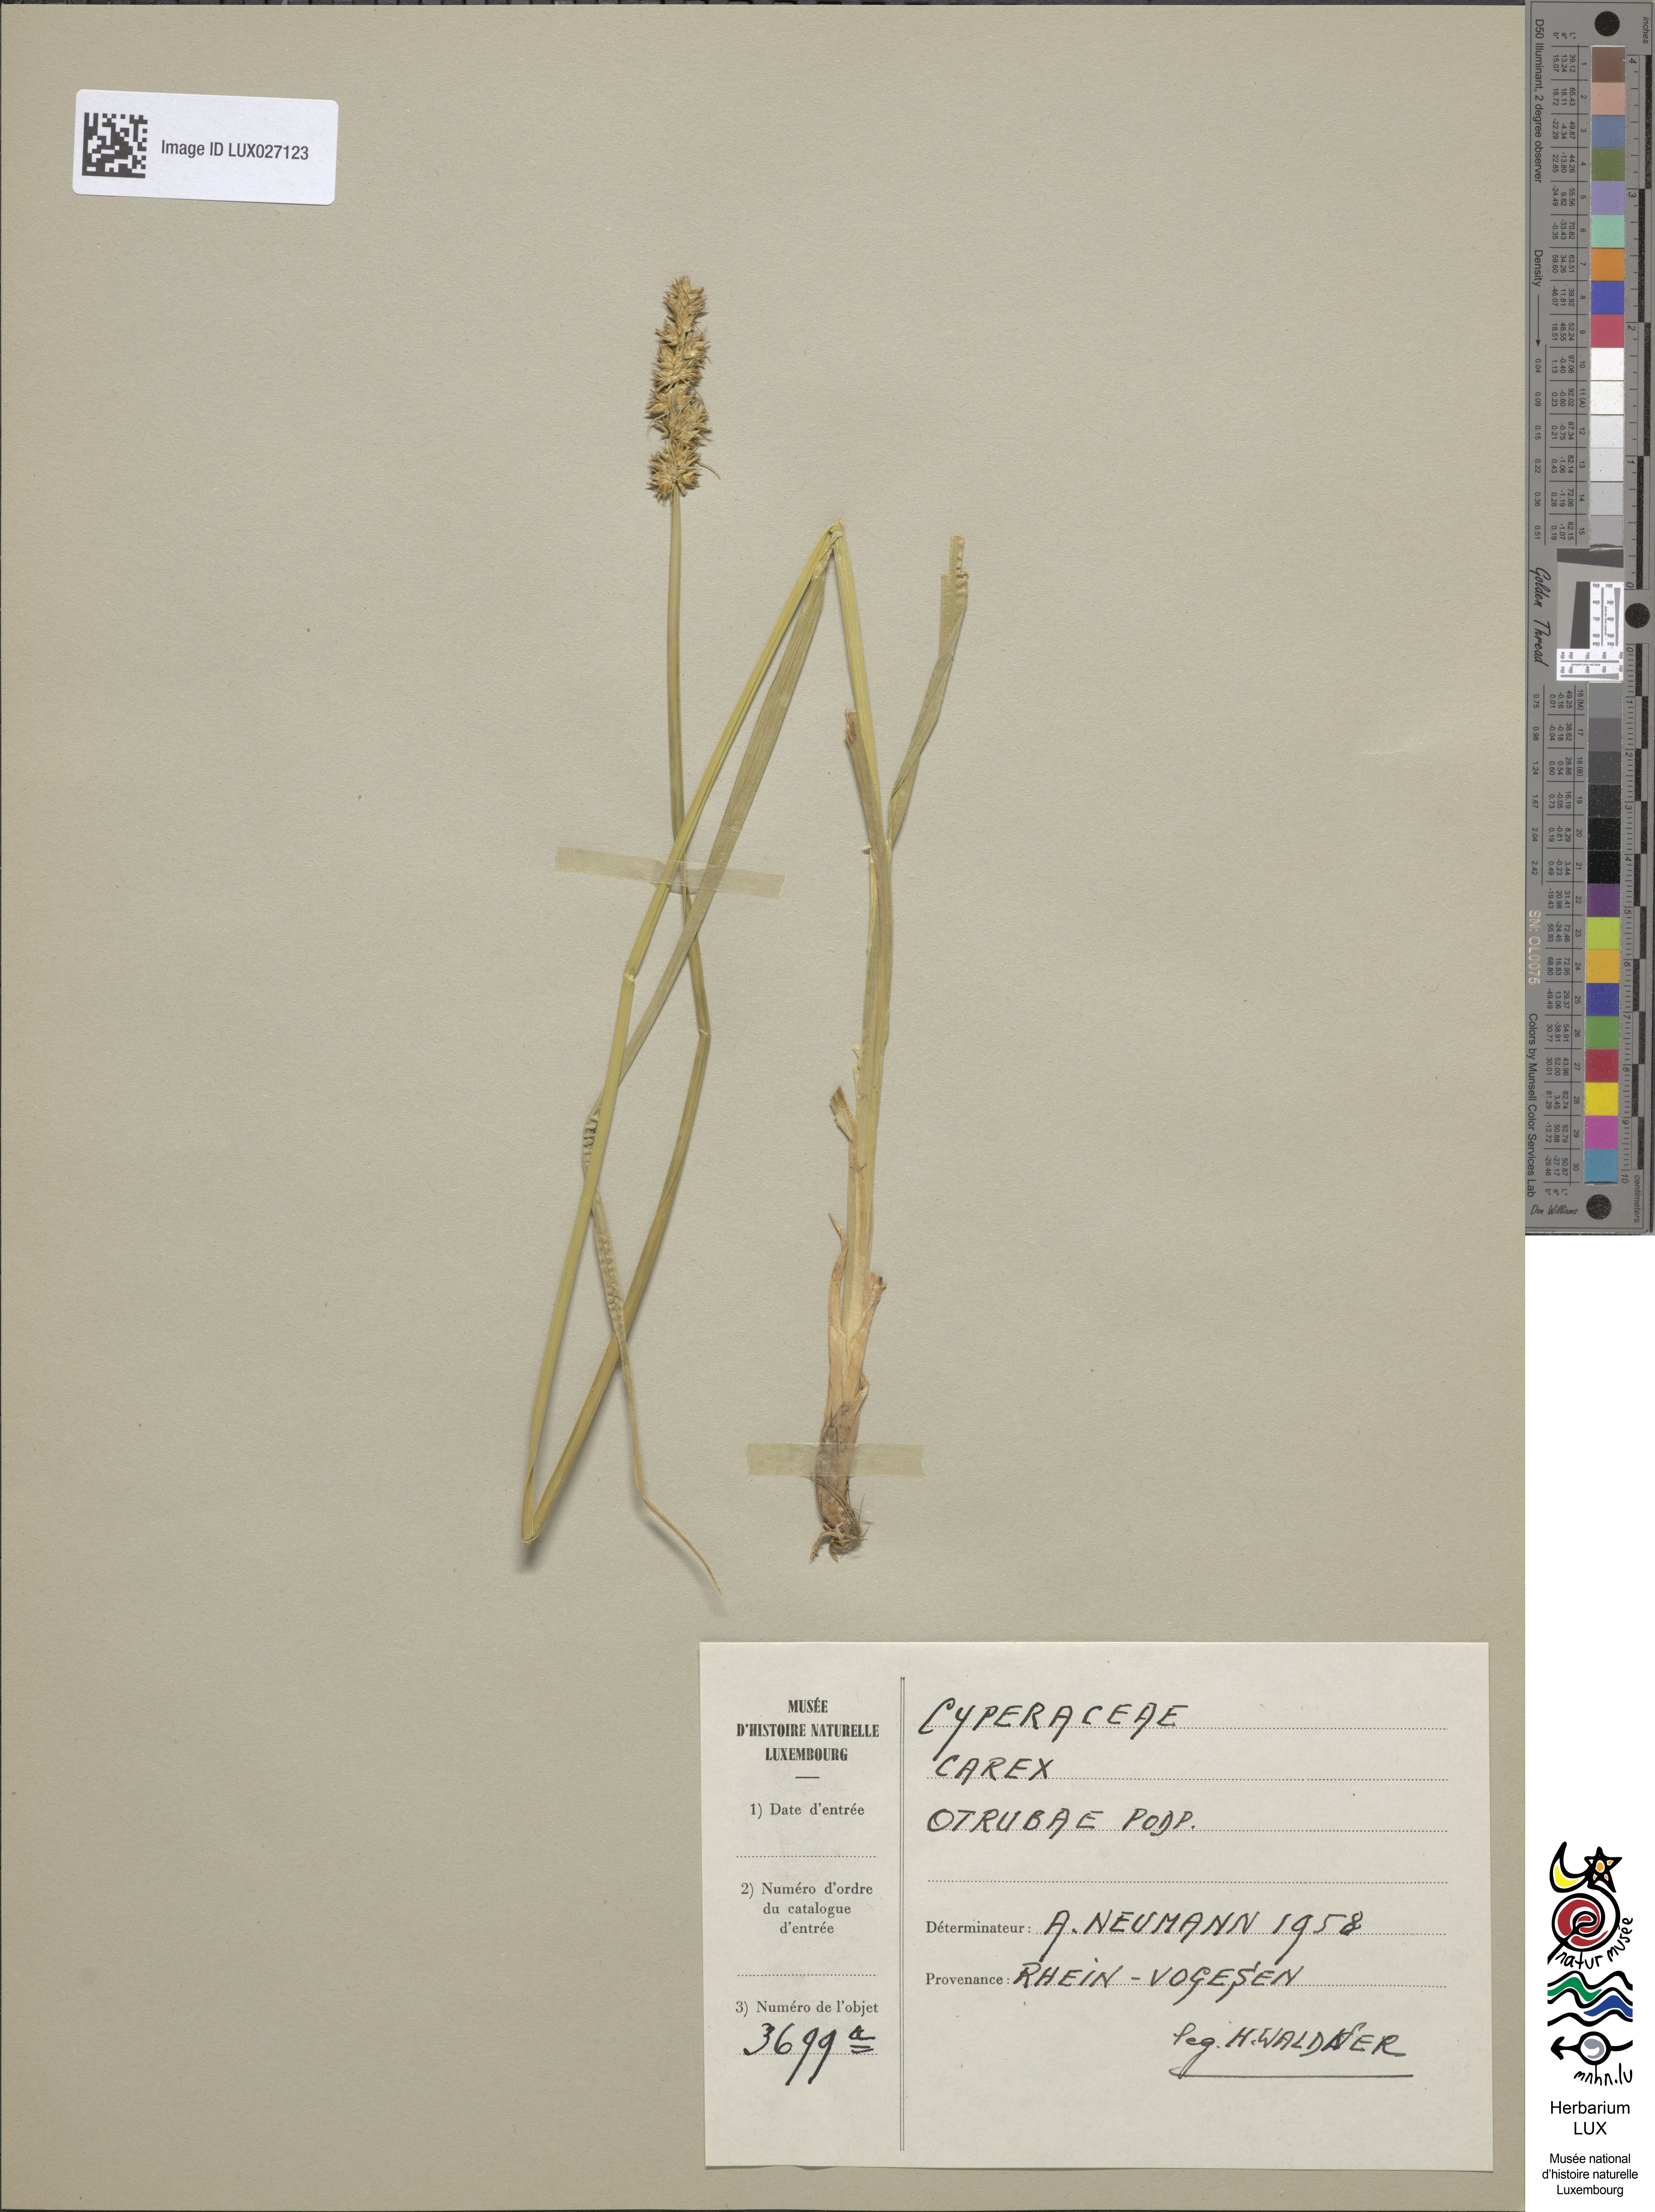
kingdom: Plantae
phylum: Tracheophyta
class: Liliopsida
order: Poales
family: Cyperaceae
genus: Carex
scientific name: Carex otrubae
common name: False fox-sedge
